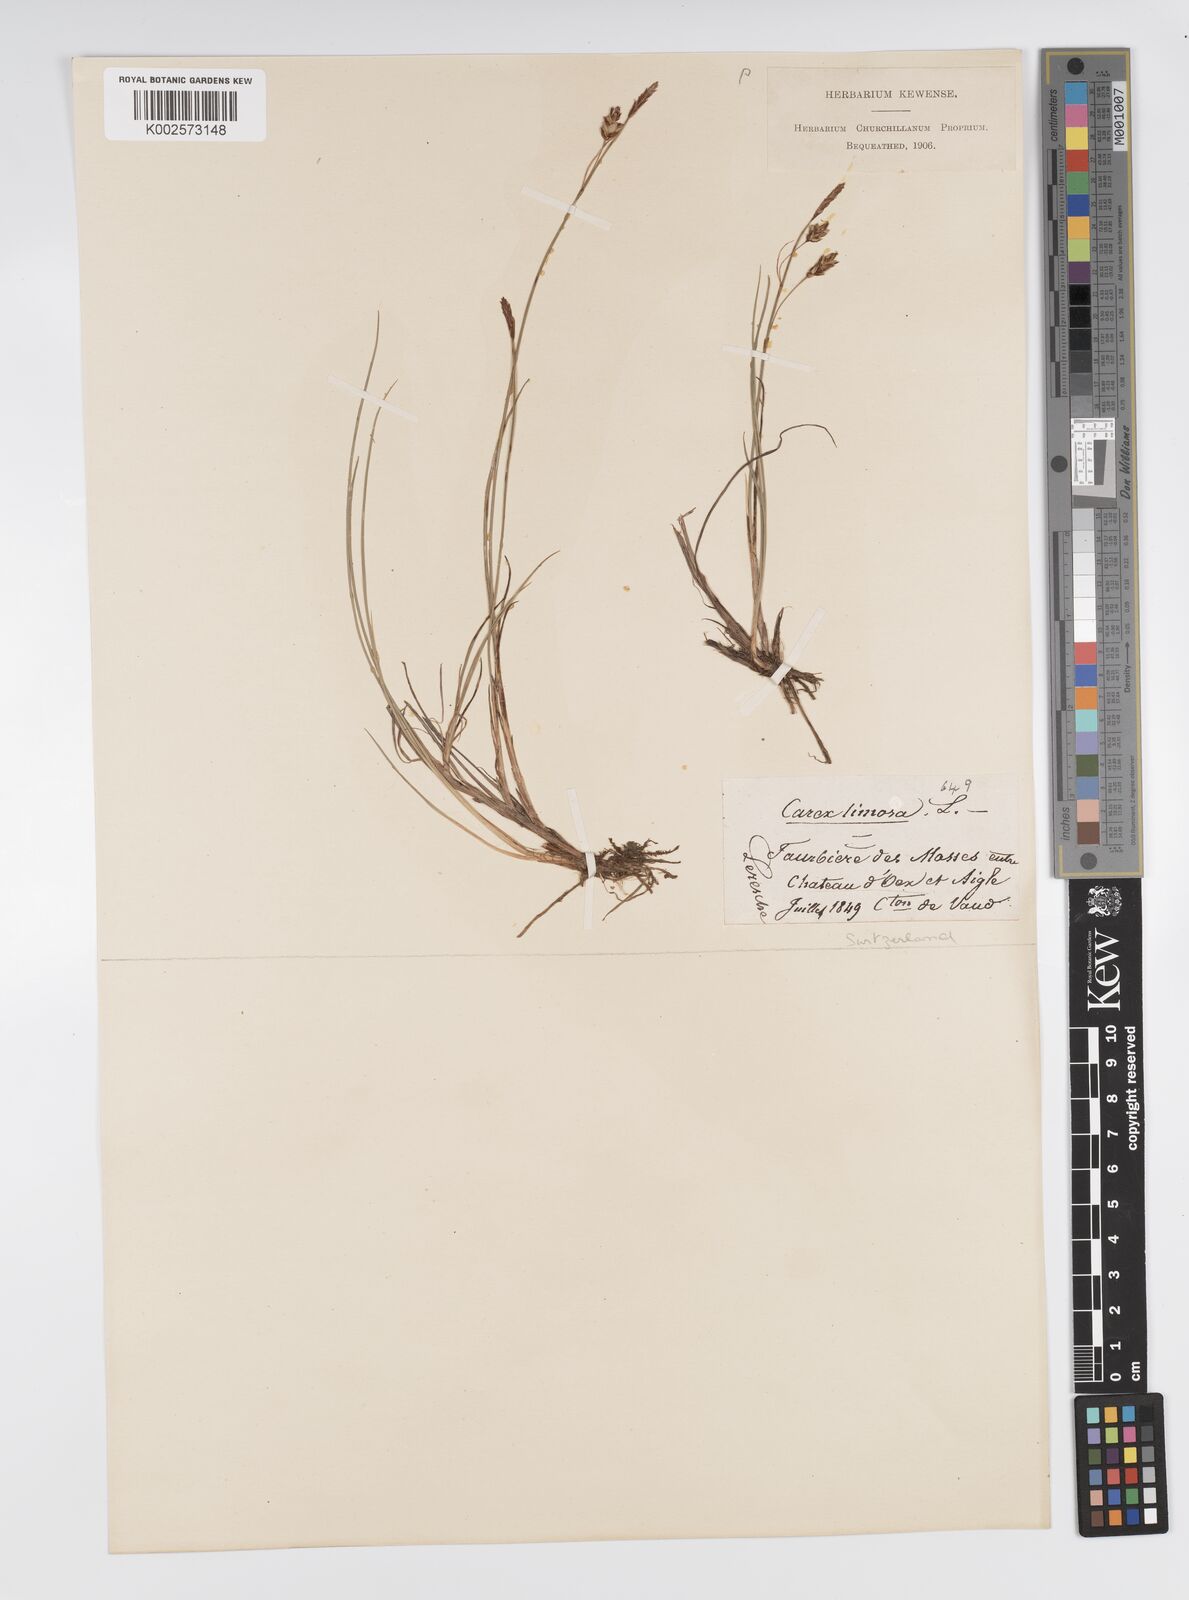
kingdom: Plantae
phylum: Tracheophyta
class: Liliopsida
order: Poales
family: Cyperaceae
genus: Carex
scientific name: Carex limosa
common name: Bog sedge
